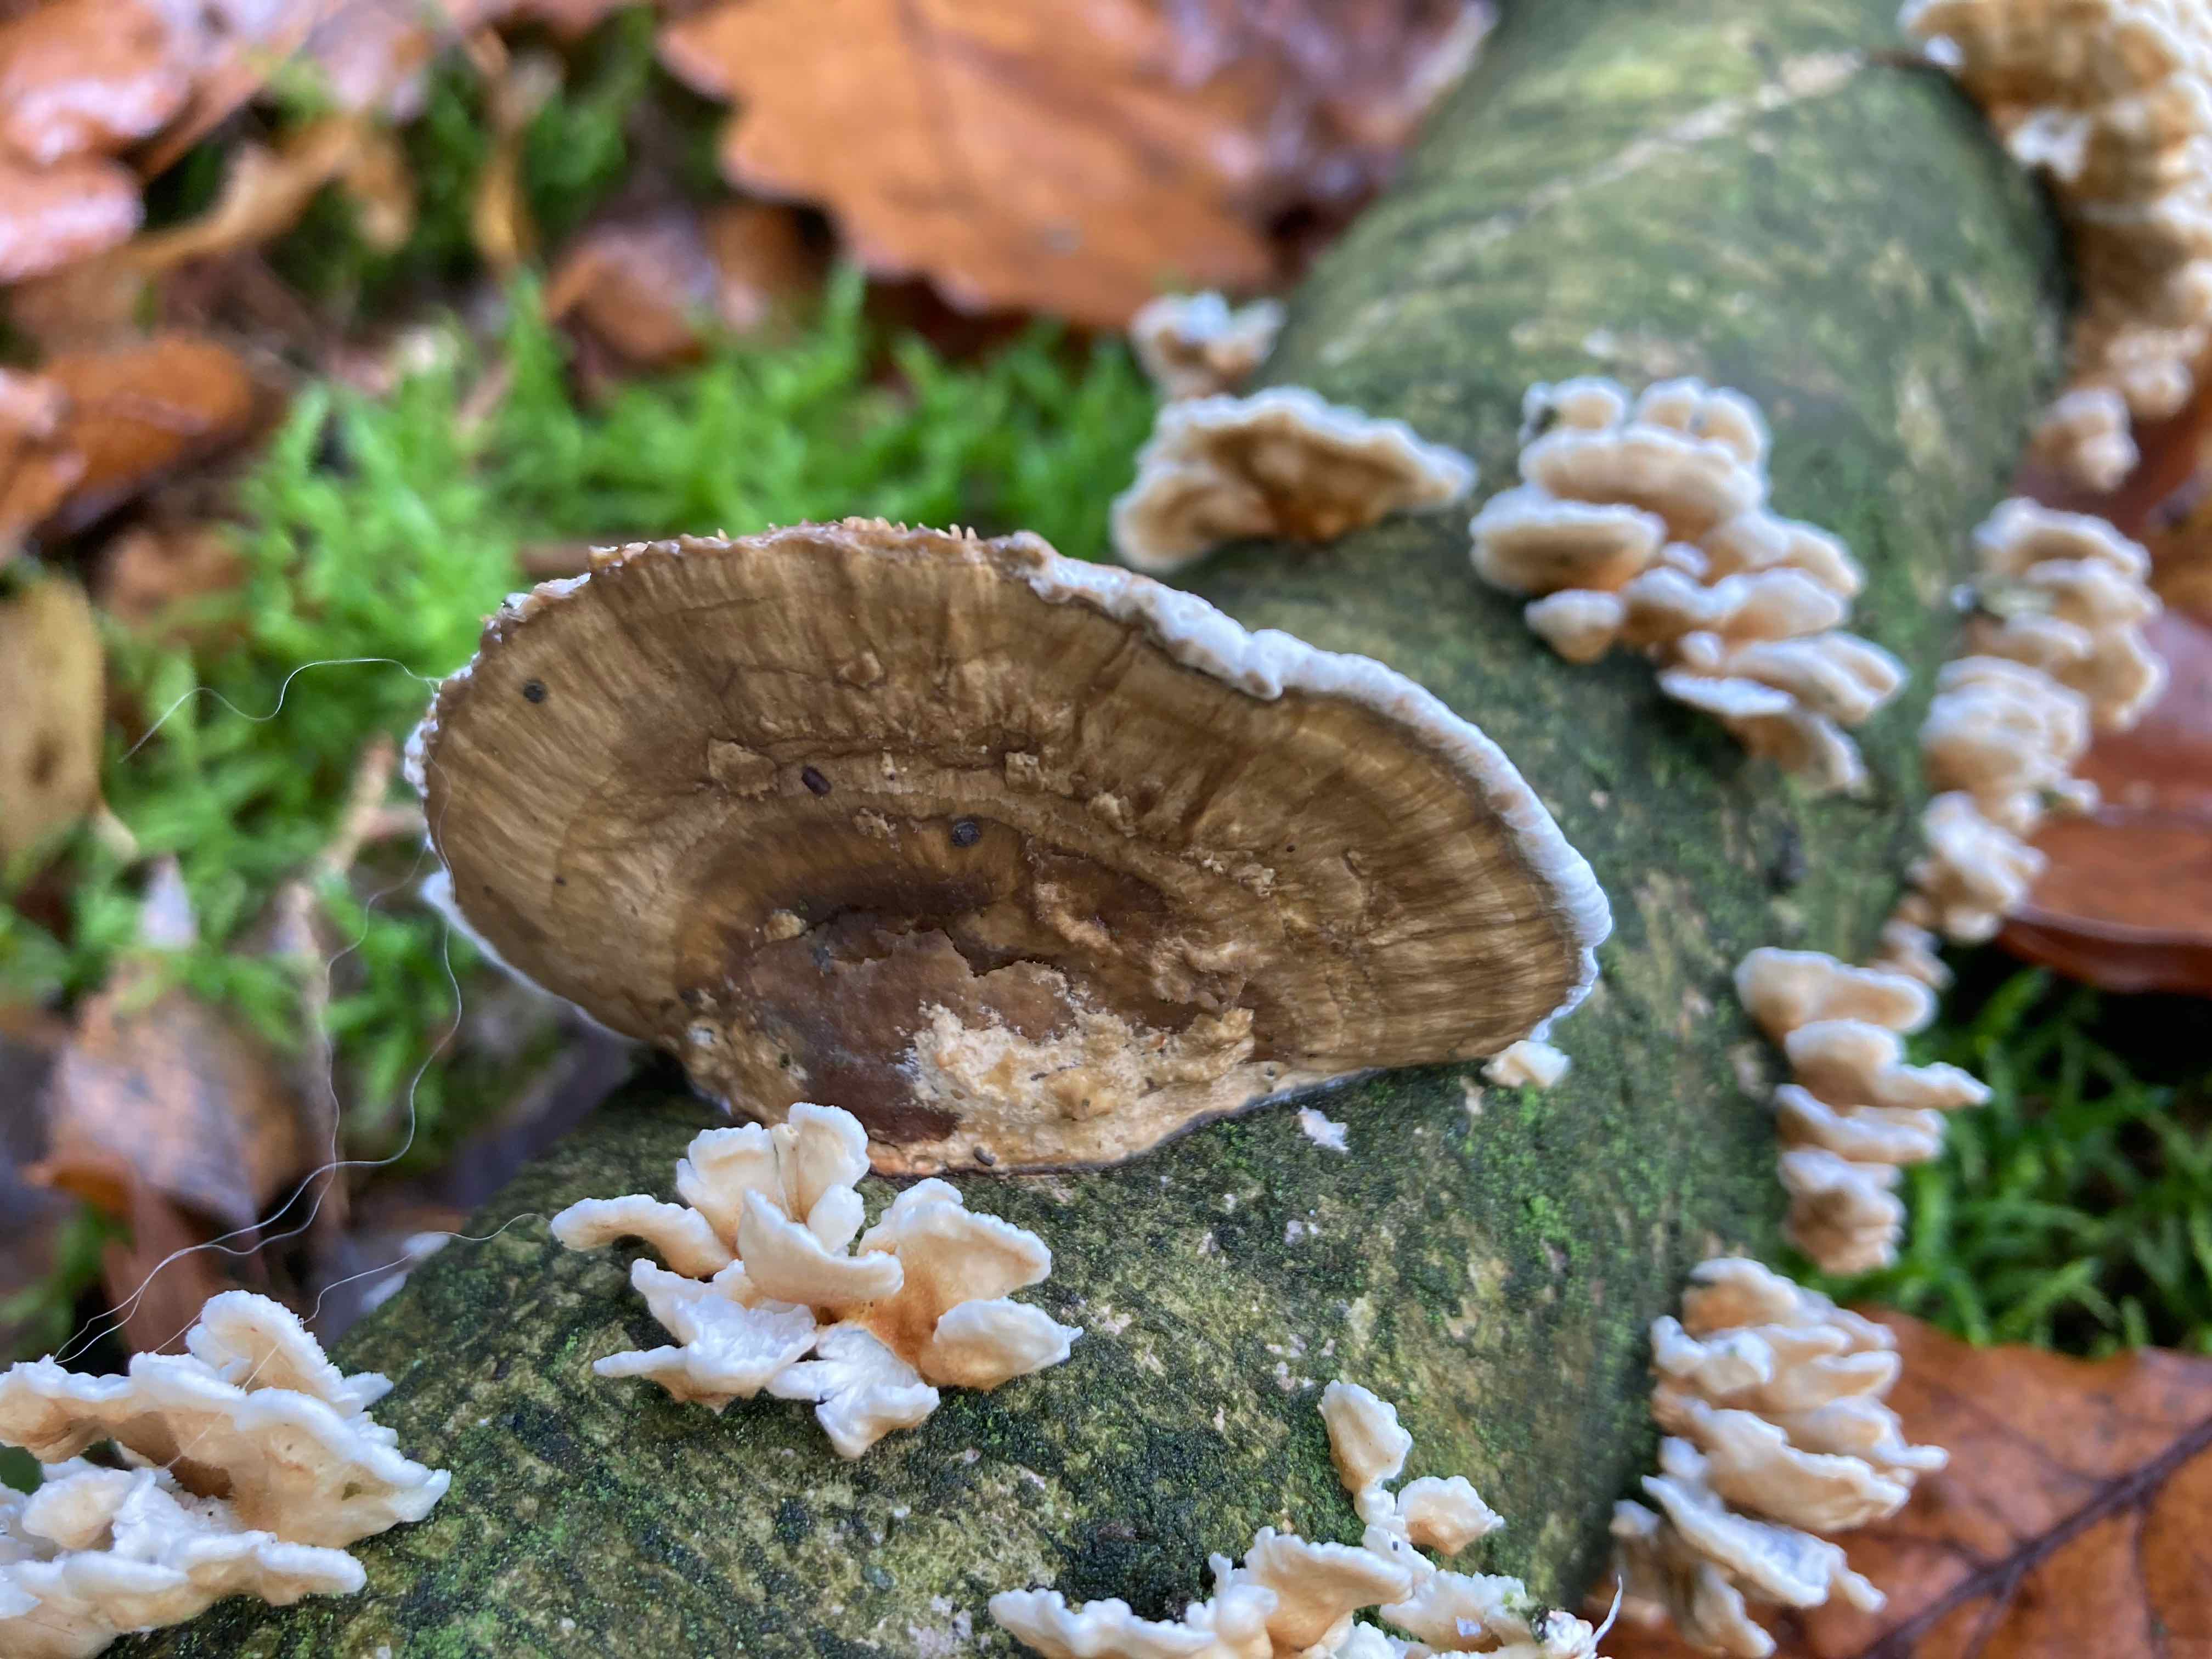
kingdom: Fungi
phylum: Basidiomycota
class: Agaricomycetes
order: Polyporales
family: Polyporaceae
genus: Daedaleopsis
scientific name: Daedaleopsis confragosa
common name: rødmende læderporesvamp
